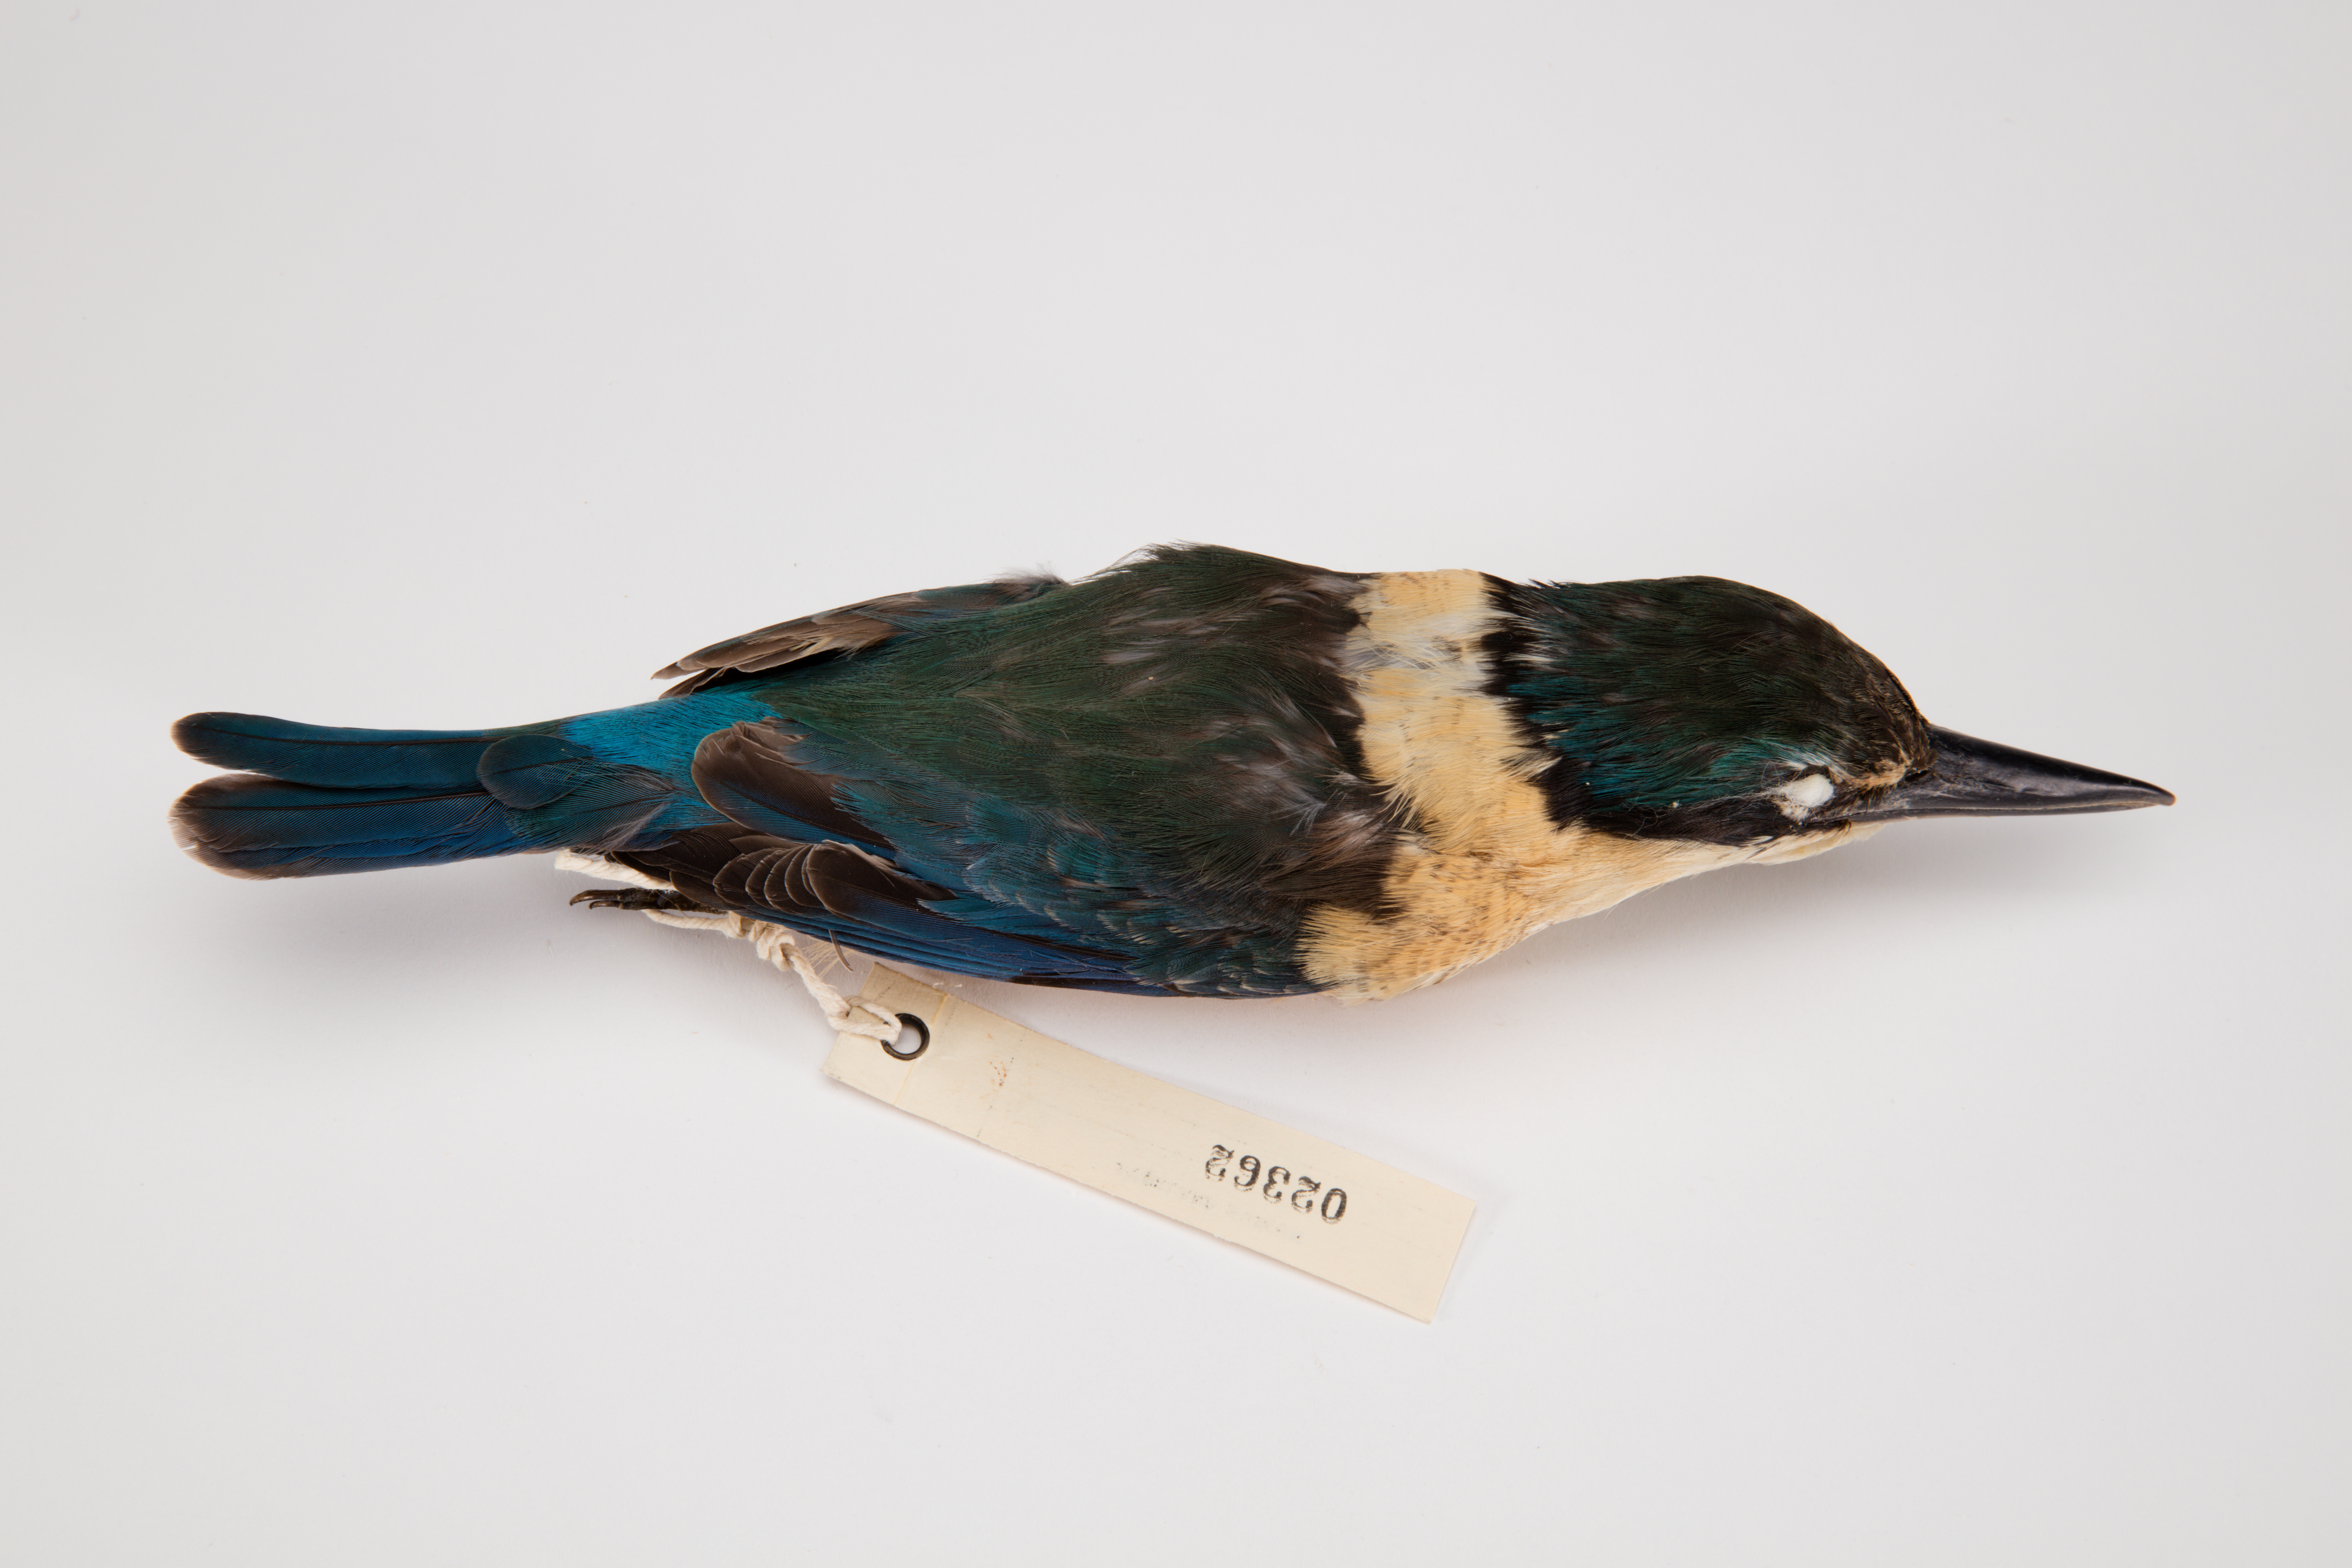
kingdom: Animalia
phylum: Chordata
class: Aves
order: Coraciiformes
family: Alcedinidae
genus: Todiramphus
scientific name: Todiramphus sanctus
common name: Sacred kingfisher
